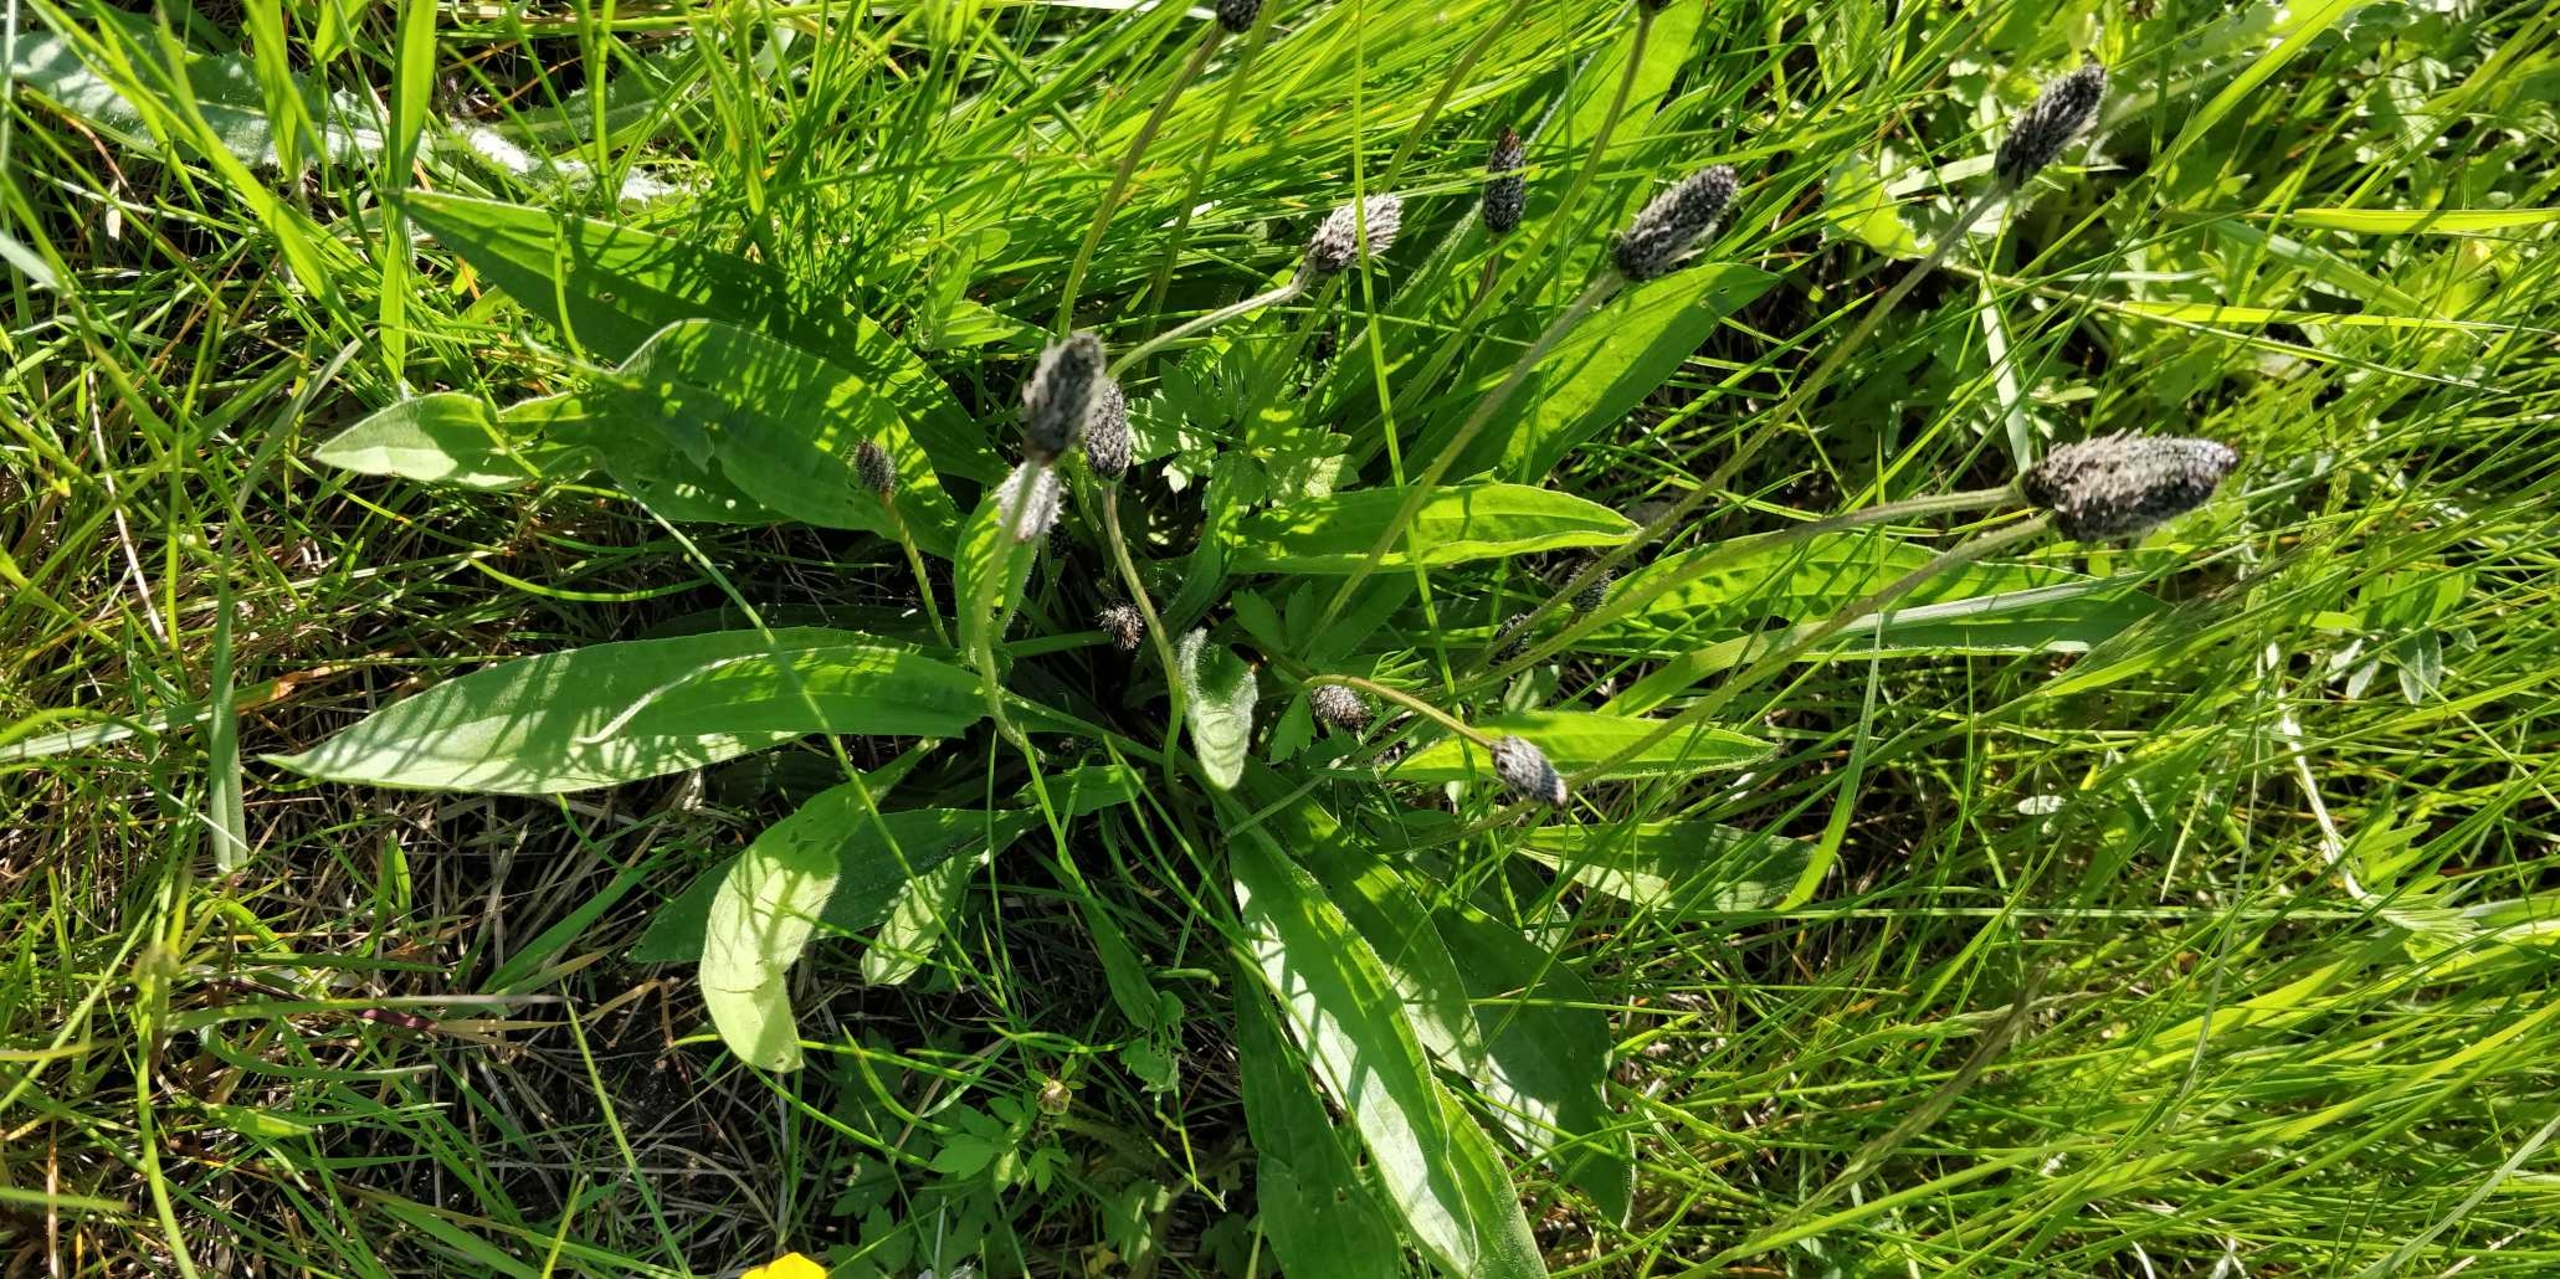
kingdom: Plantae
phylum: Tracheophyta
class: Magnoliopsida
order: Lamiales
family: Plantaginaceae
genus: Plantago
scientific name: Plantago lanceolata
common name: Lancet-vejbred
